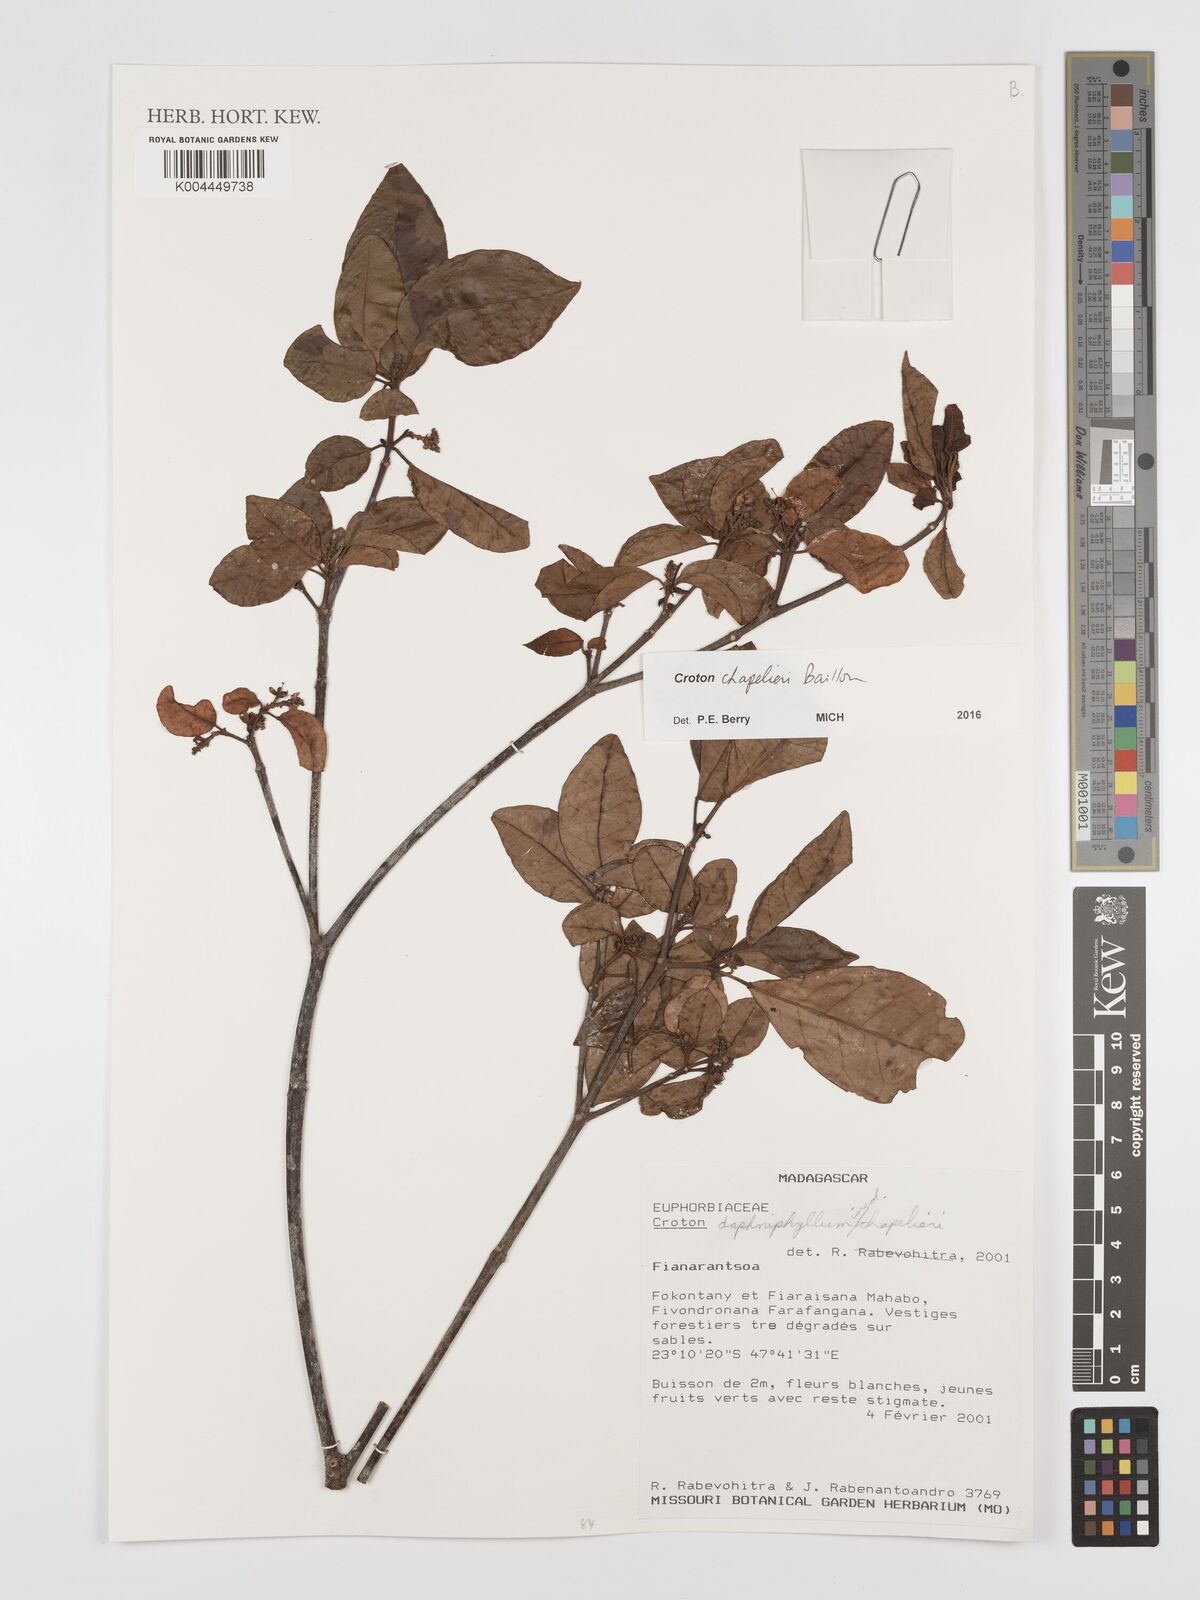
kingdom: Plantae
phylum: Tracheophyta
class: Magnoliopsida
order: Malpighiales
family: Euphorbiaceae
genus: Croton
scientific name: Croton chapelieri
